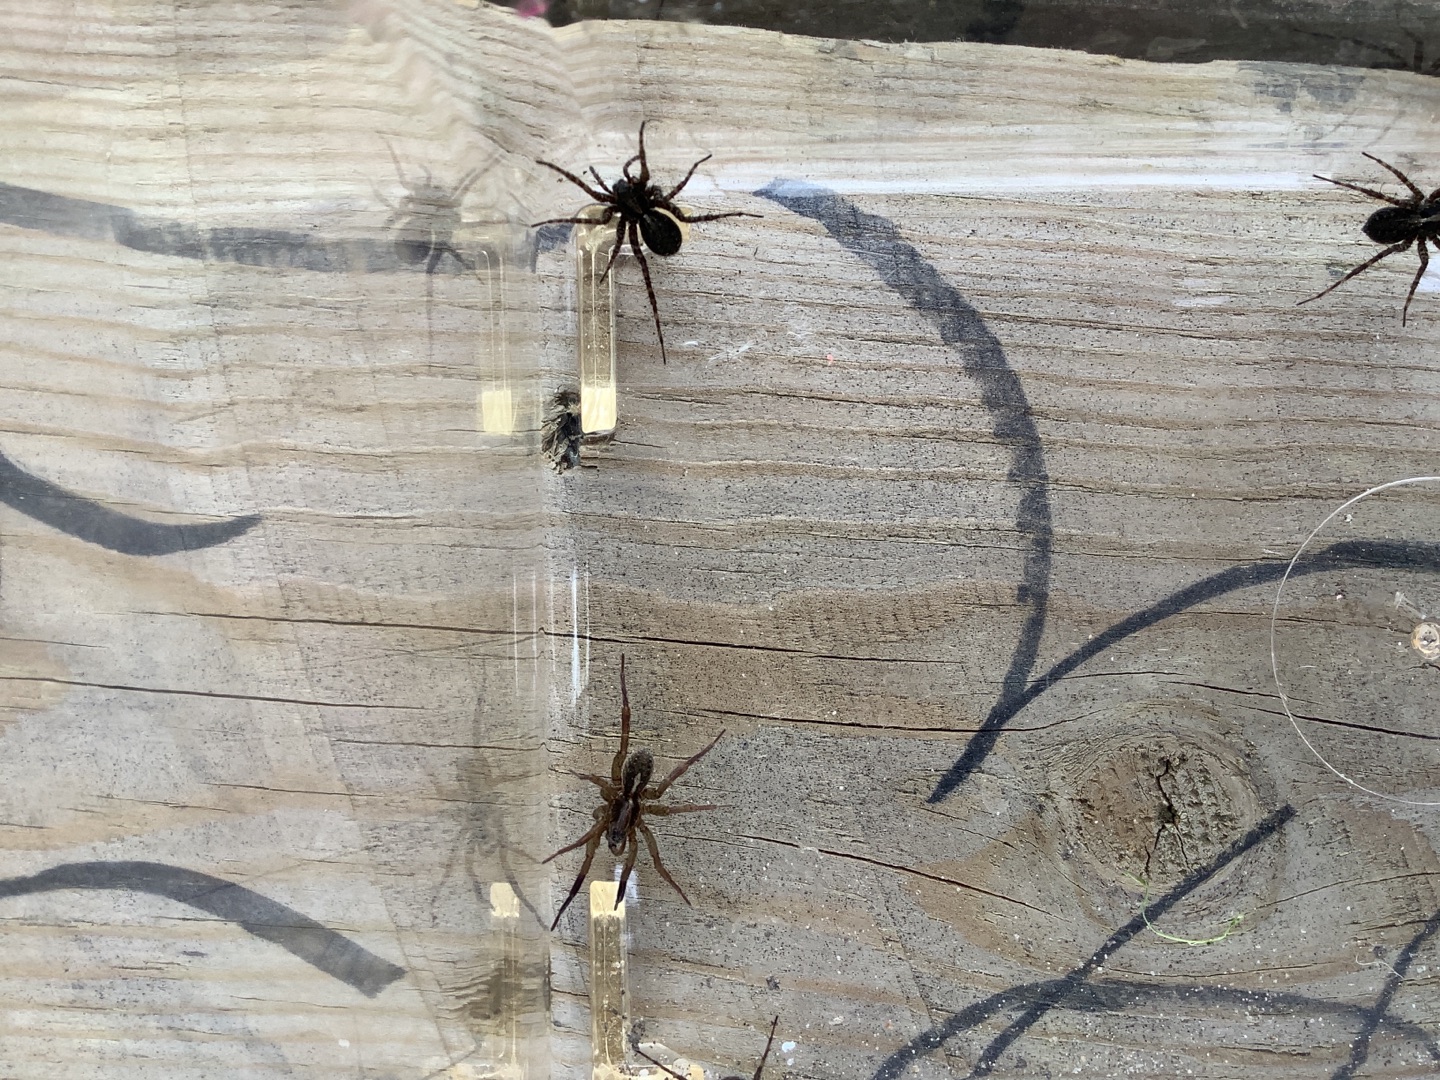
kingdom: Animalia
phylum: Arthropoda
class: Arachnida
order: Araneae
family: Lycosidae
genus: Trochosa
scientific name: Trochosa ruricola
